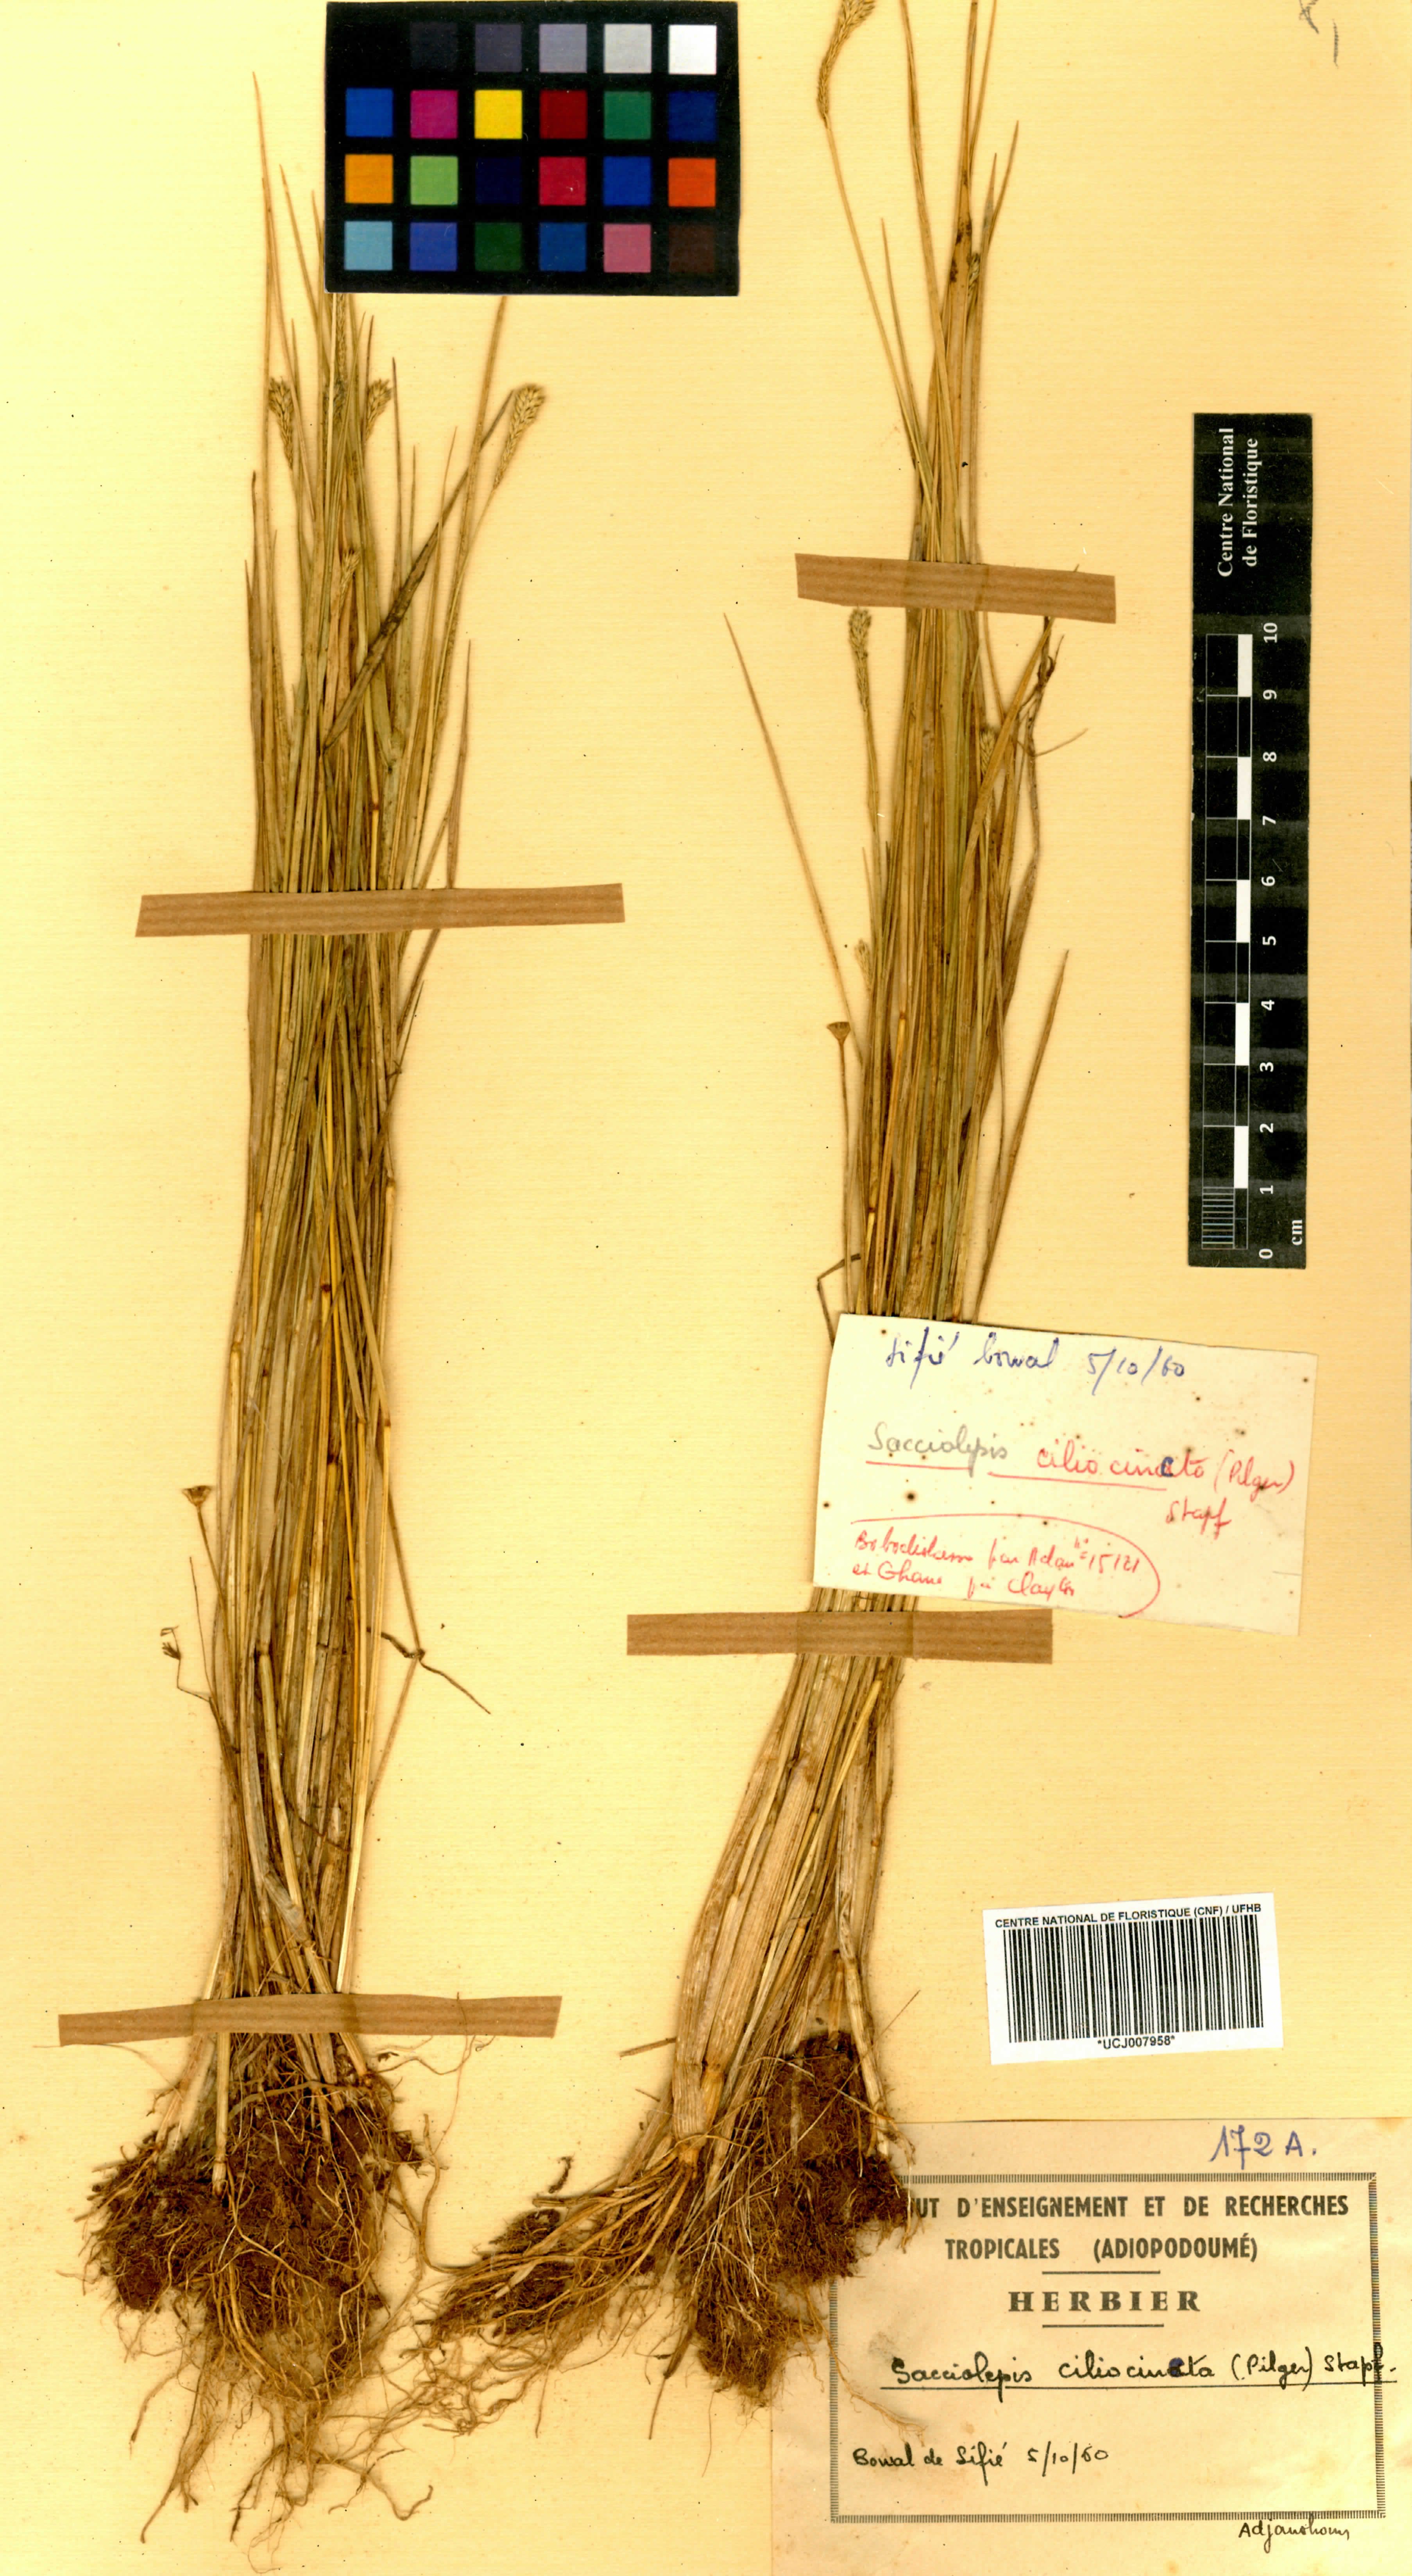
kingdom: Plantae
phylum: Tracheophyta
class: Liliopsida
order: Poales
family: Poaceae
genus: Sacciolepis
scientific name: Sacciolepis ciliocincta
